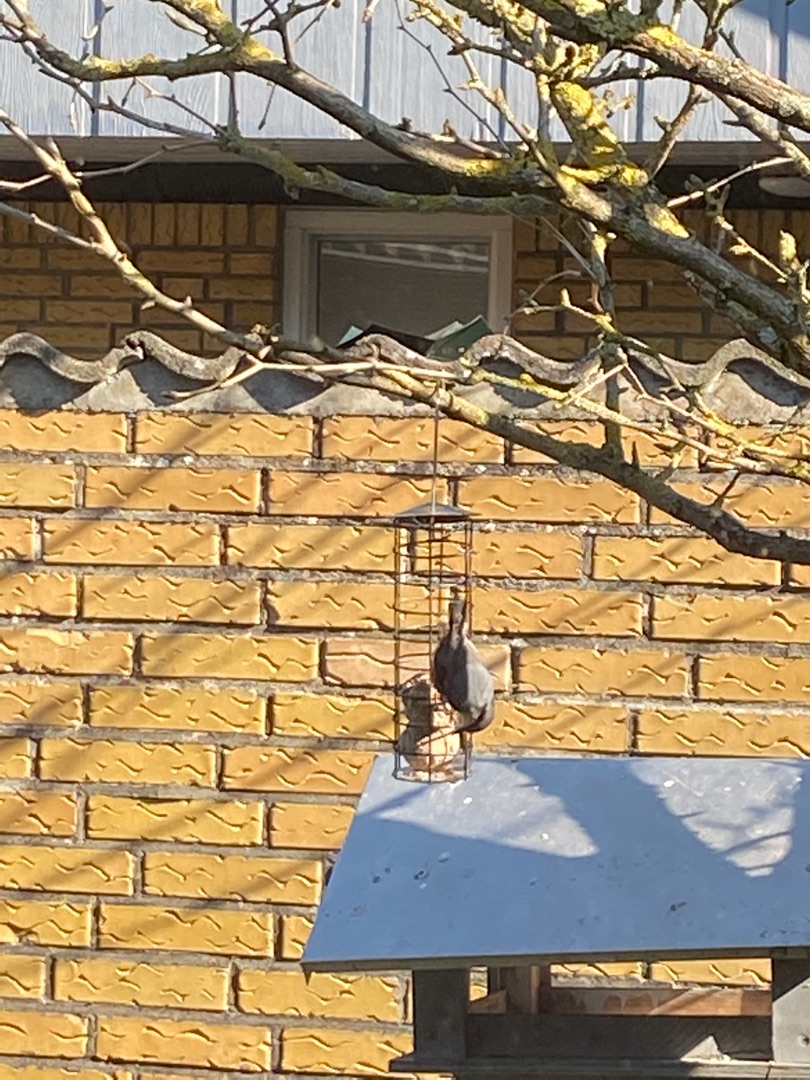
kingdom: Animalia
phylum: Chordata
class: Aves
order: Passeriformes
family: Sittidae
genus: Sitta
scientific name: Sitta europaea
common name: Spætmejse
